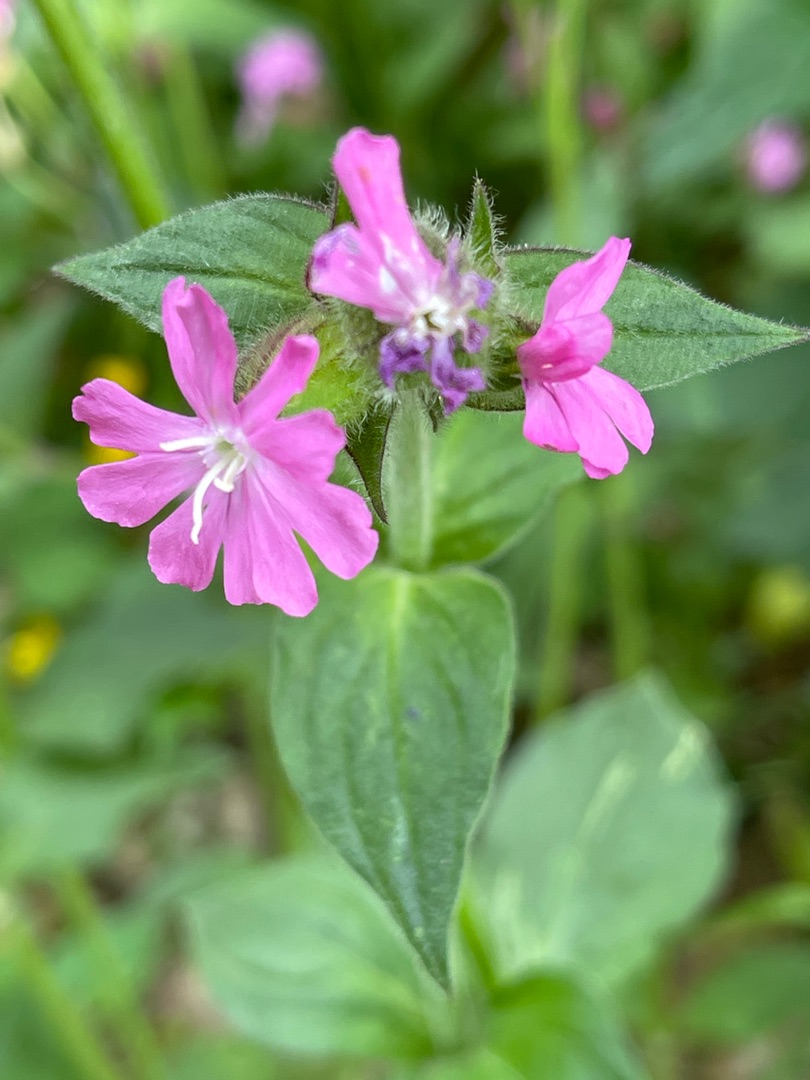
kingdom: Plantae
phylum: Tracheophyta
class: Magnoliopsida
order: Caryophyllales
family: Caryophyllaceae
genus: Silene
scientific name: Silene dioica
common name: Dagpragtstjerne
